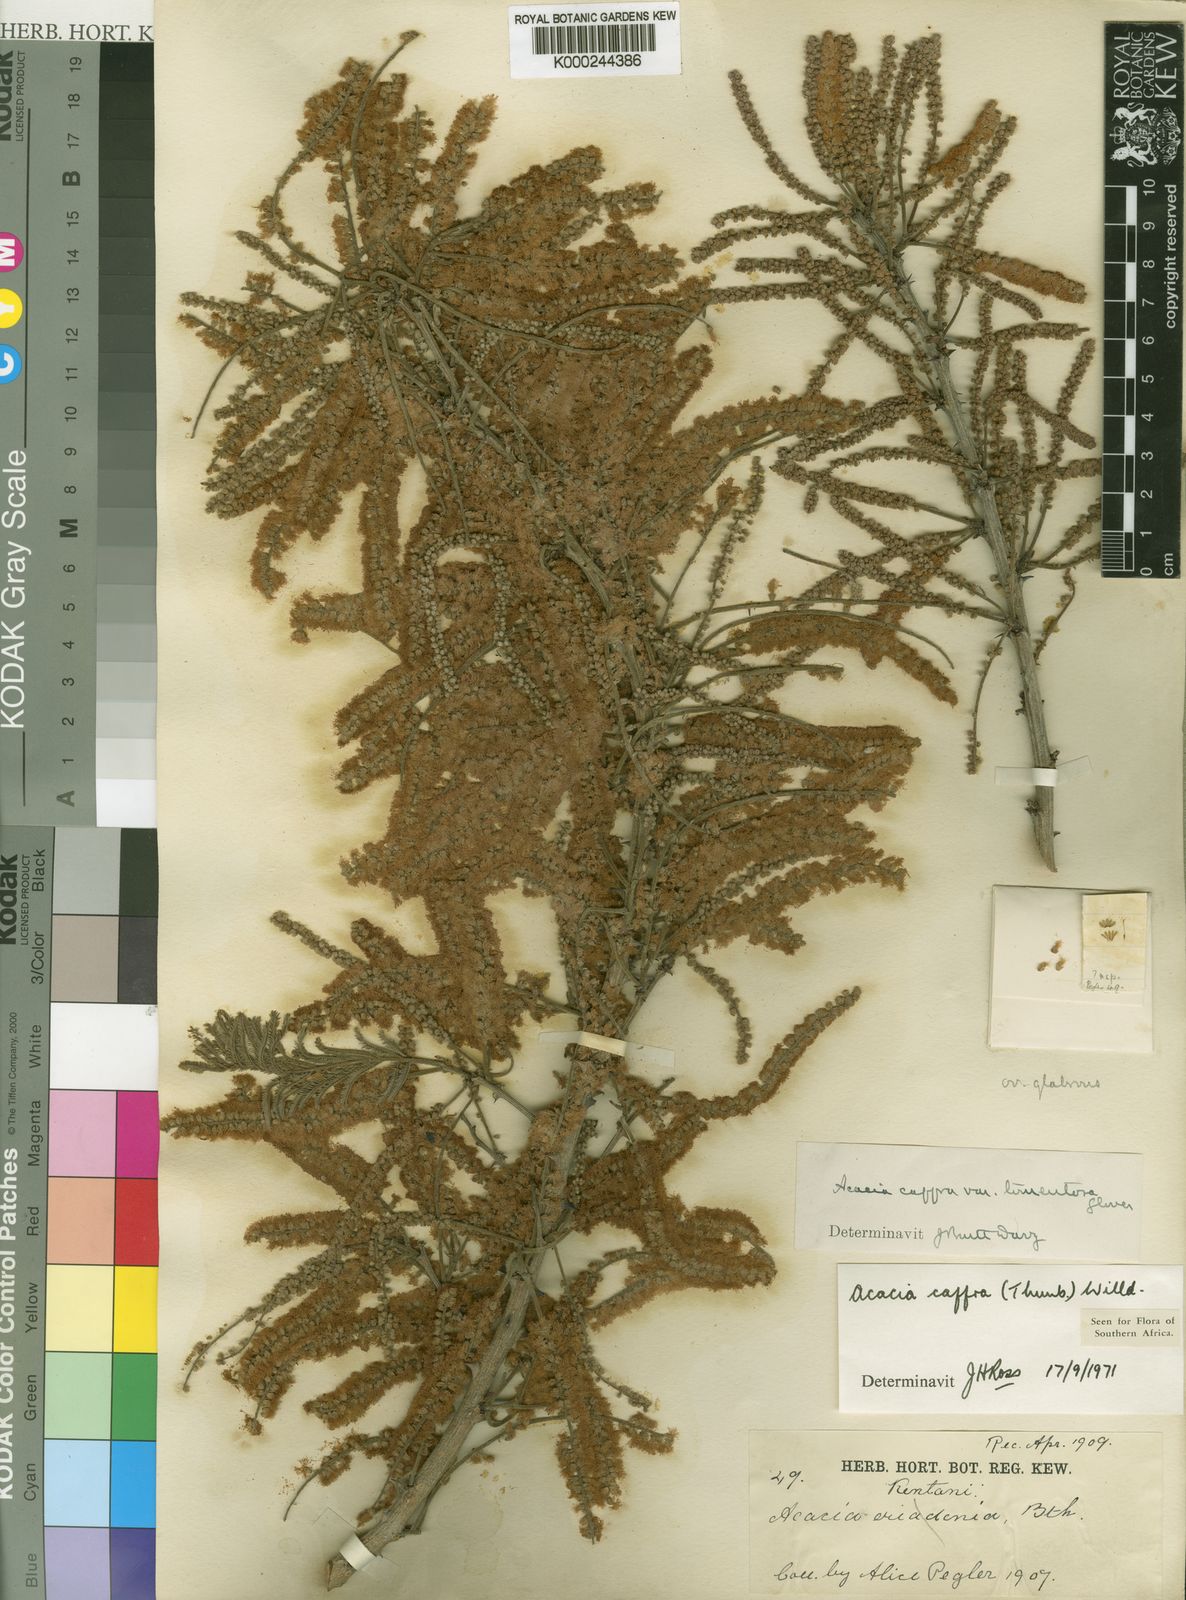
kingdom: Plantae
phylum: Tracheophyta
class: Magnoliopsida
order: Fabales
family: Fabaceae
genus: Senegalia
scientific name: Senegalia caffra
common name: Cat thorn
